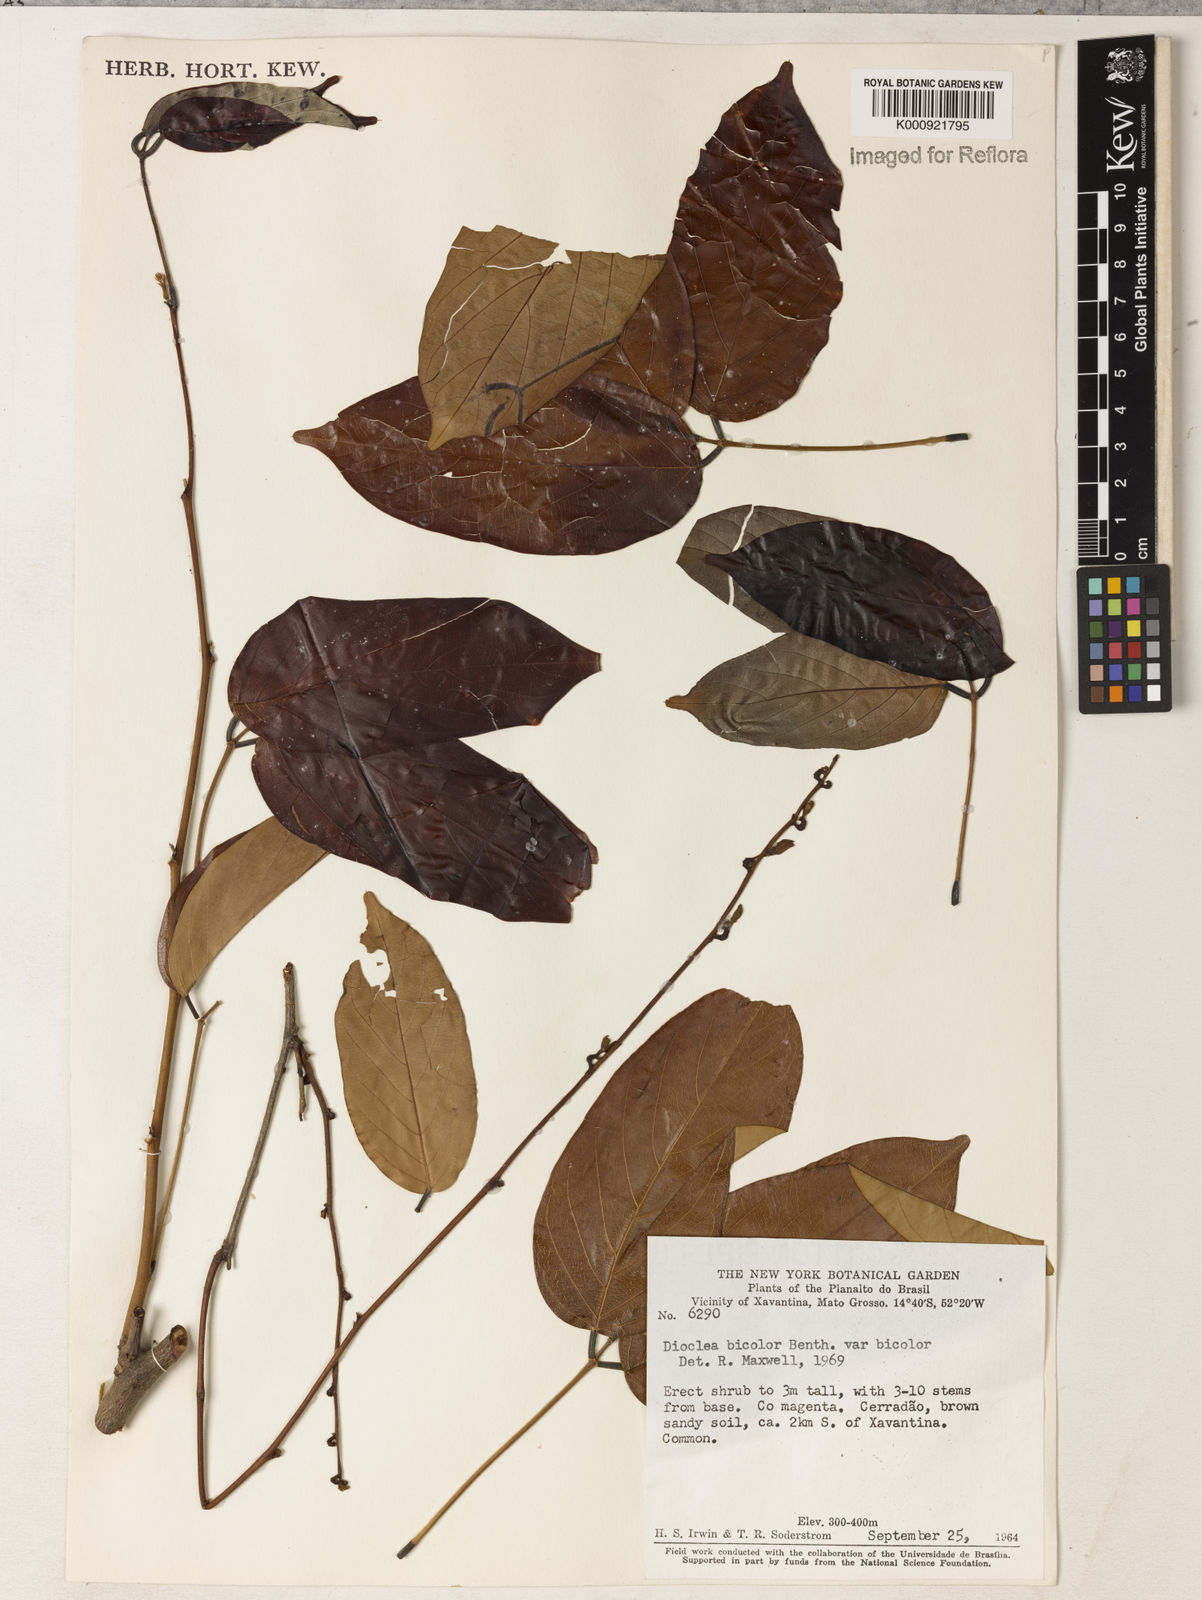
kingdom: Plantae
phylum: Tracheophyta
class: Magnoliopsida
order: Fabales
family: Fabaceae
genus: Macropsychanthus
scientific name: Macropsychanthus bicolor
